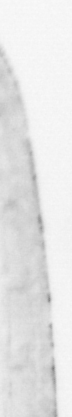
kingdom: Animalia
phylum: Chordata
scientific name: Chordata
